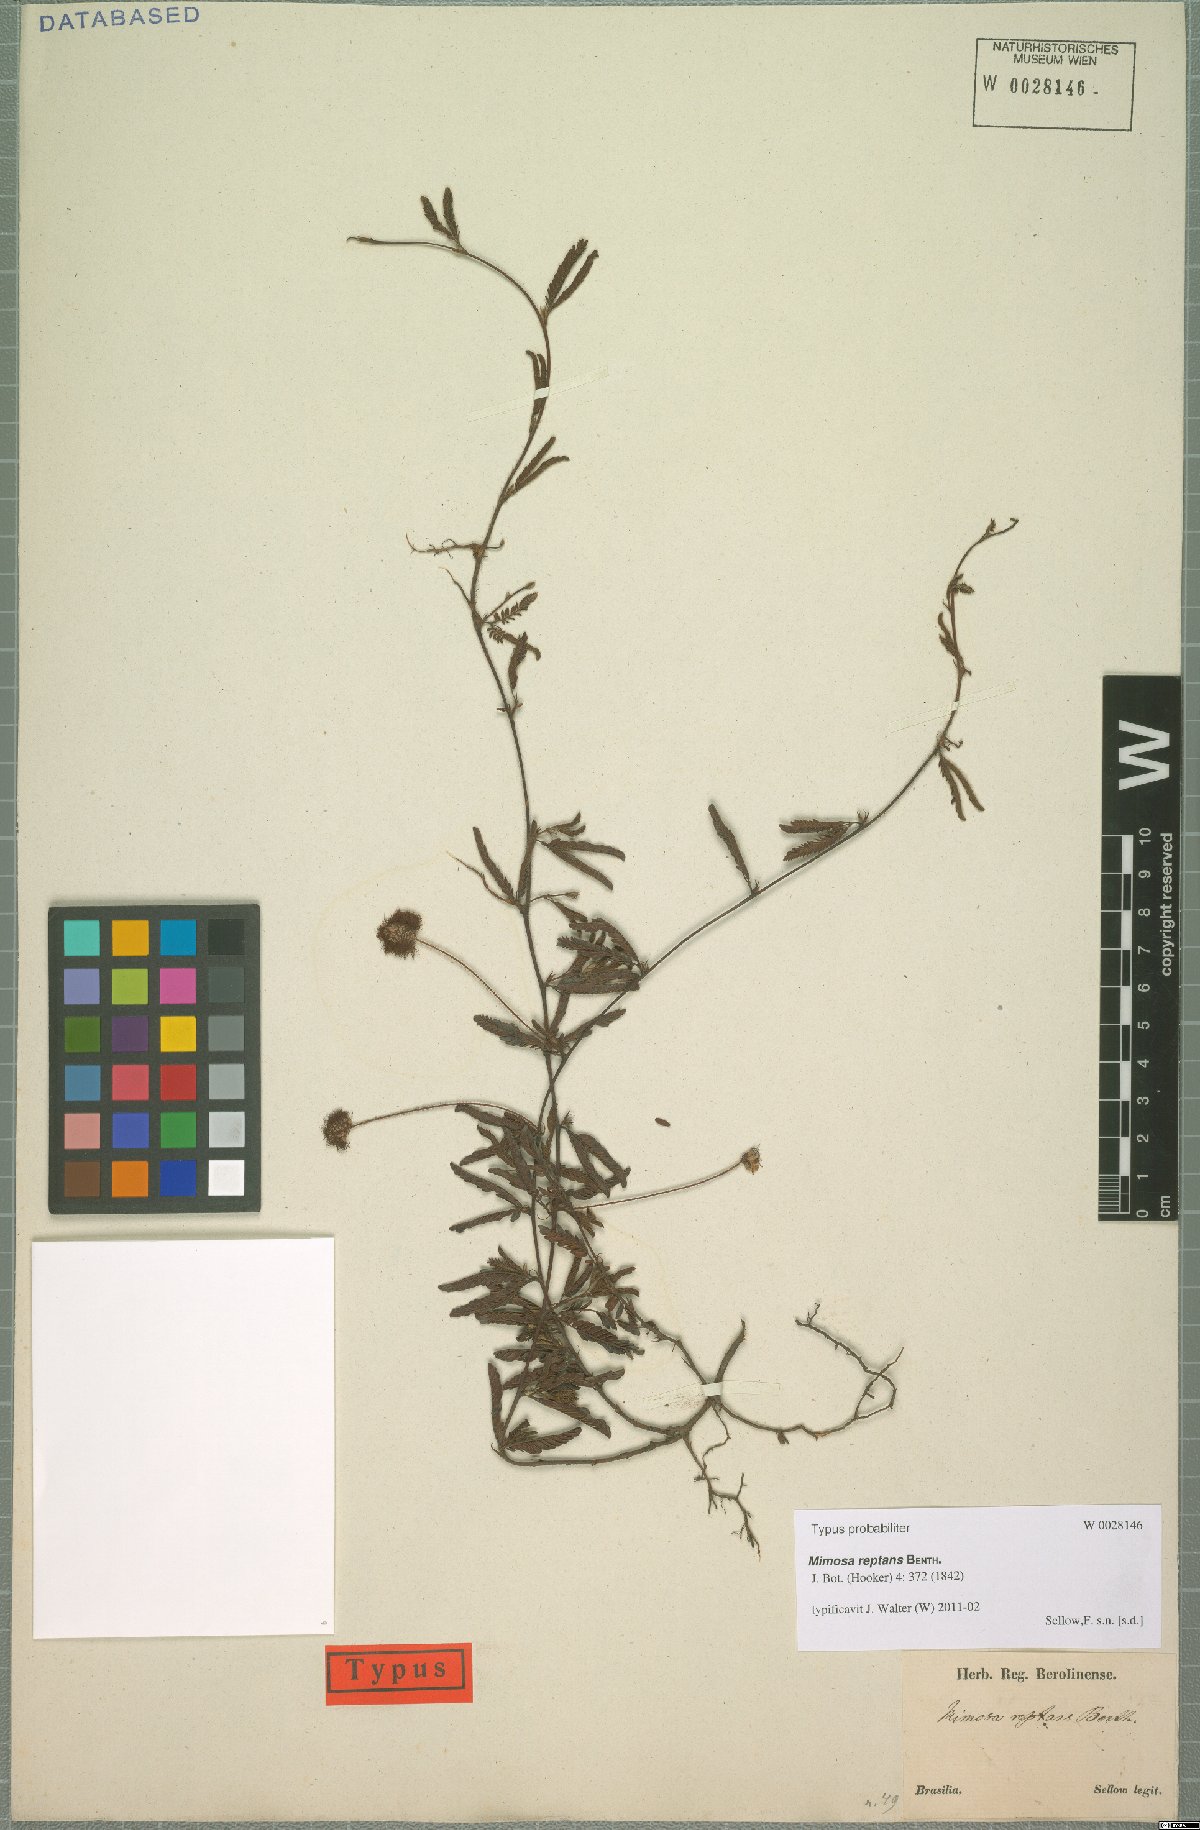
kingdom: Plantae
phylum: Tracheophyta
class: Magnoliopsida
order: Fabales
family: Fabaceae
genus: Mimosa
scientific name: Mimosa reptans
